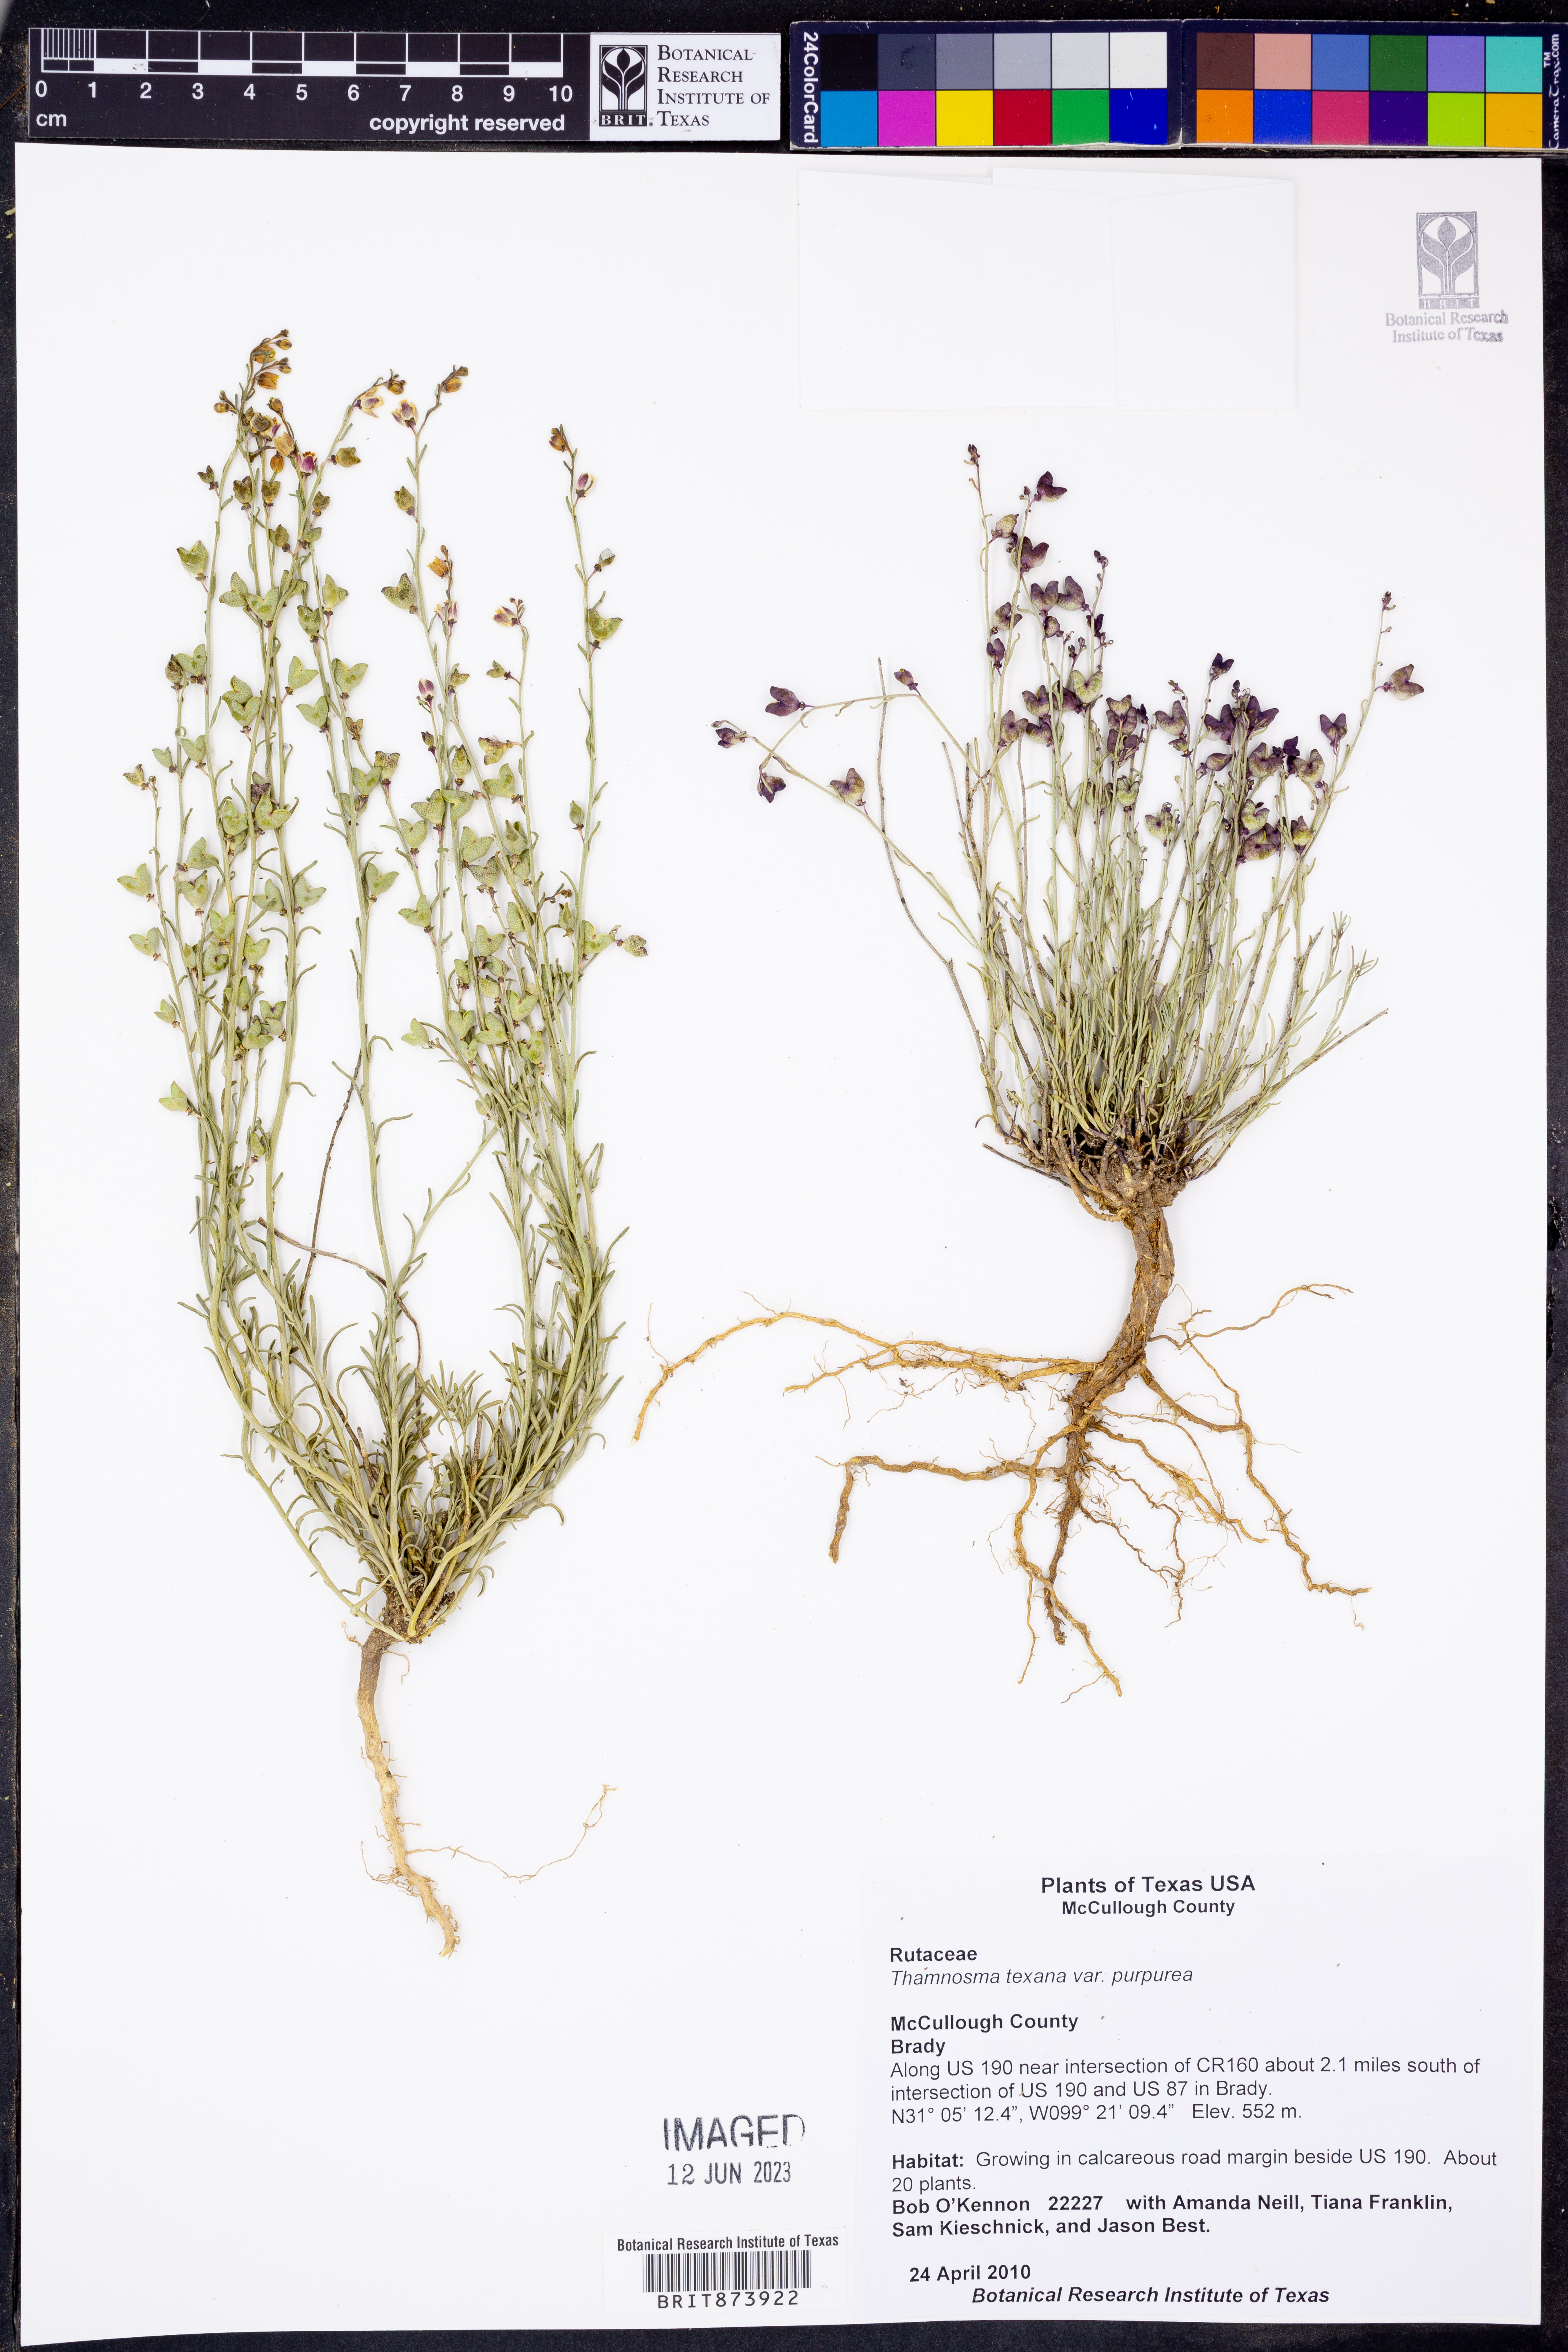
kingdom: Plantae
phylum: Tracheophyta
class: Magnoliopsida
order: Sapindales
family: Rutaceae
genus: Thamnosma
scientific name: Thamnosma texana
